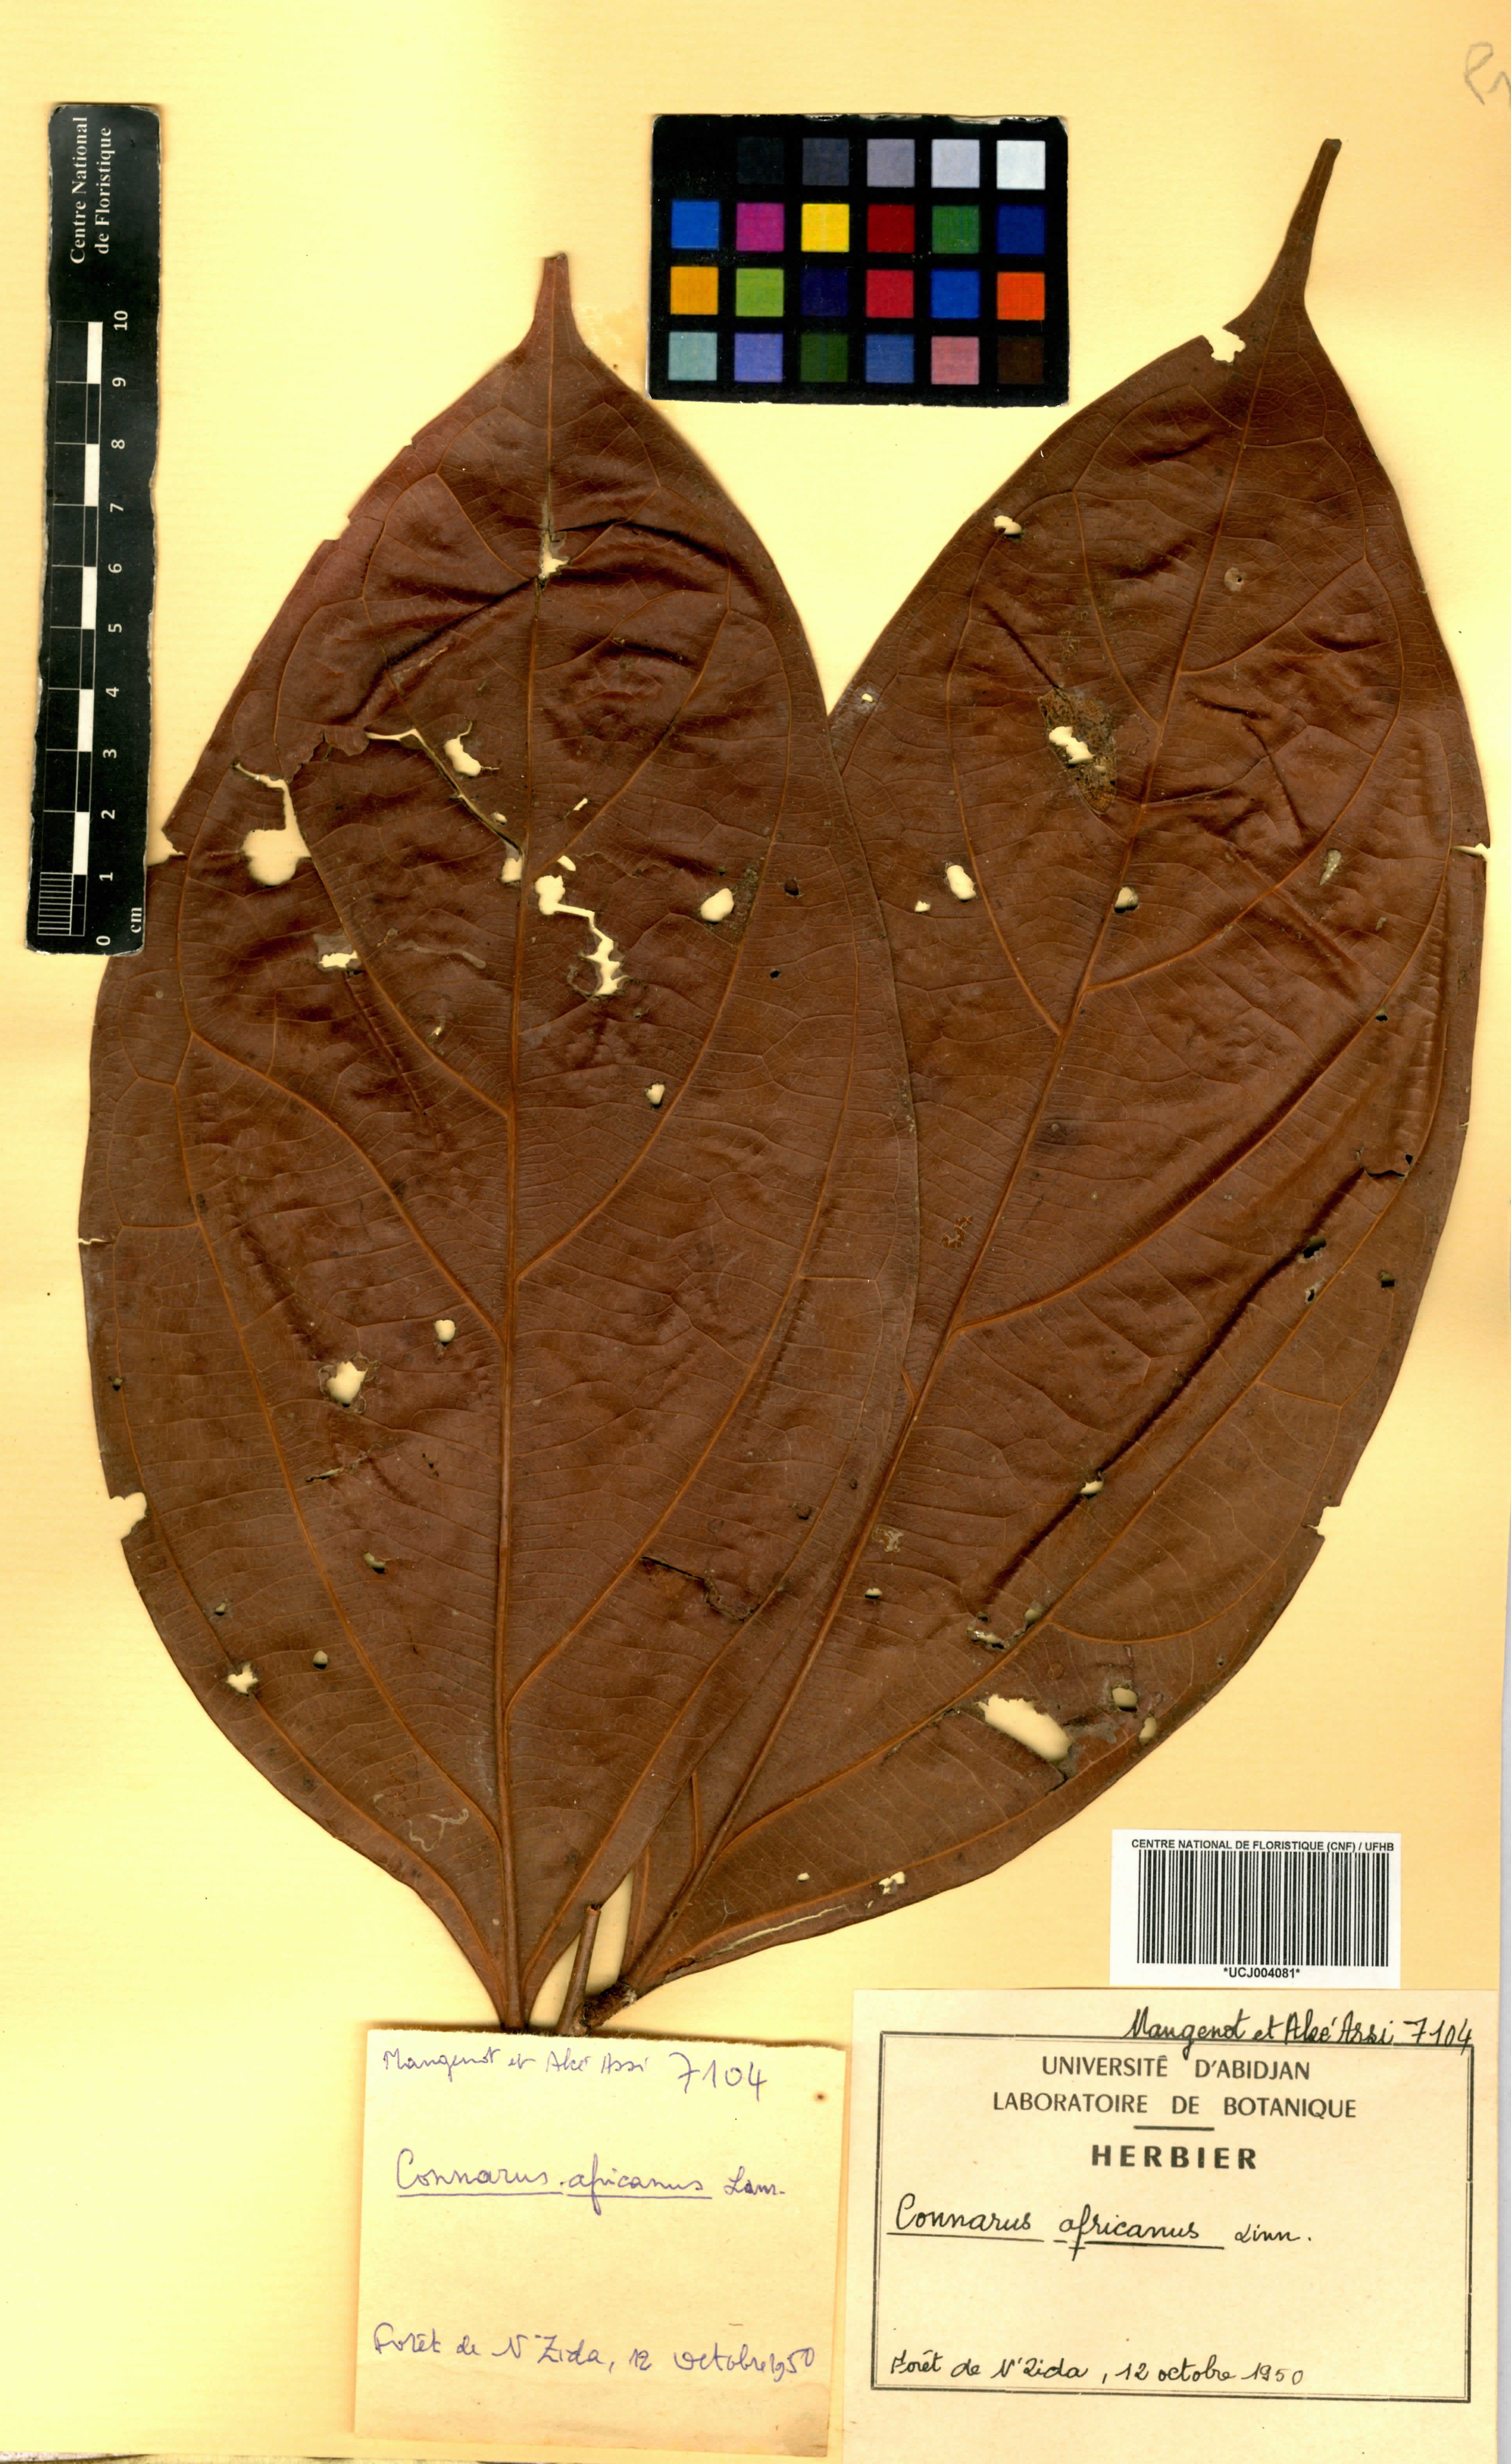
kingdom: Plantae
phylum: Tracheophyta
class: Magnoliopsida
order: Oxalidales
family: Connaraceae
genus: Connarus
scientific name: Connarus africanus
